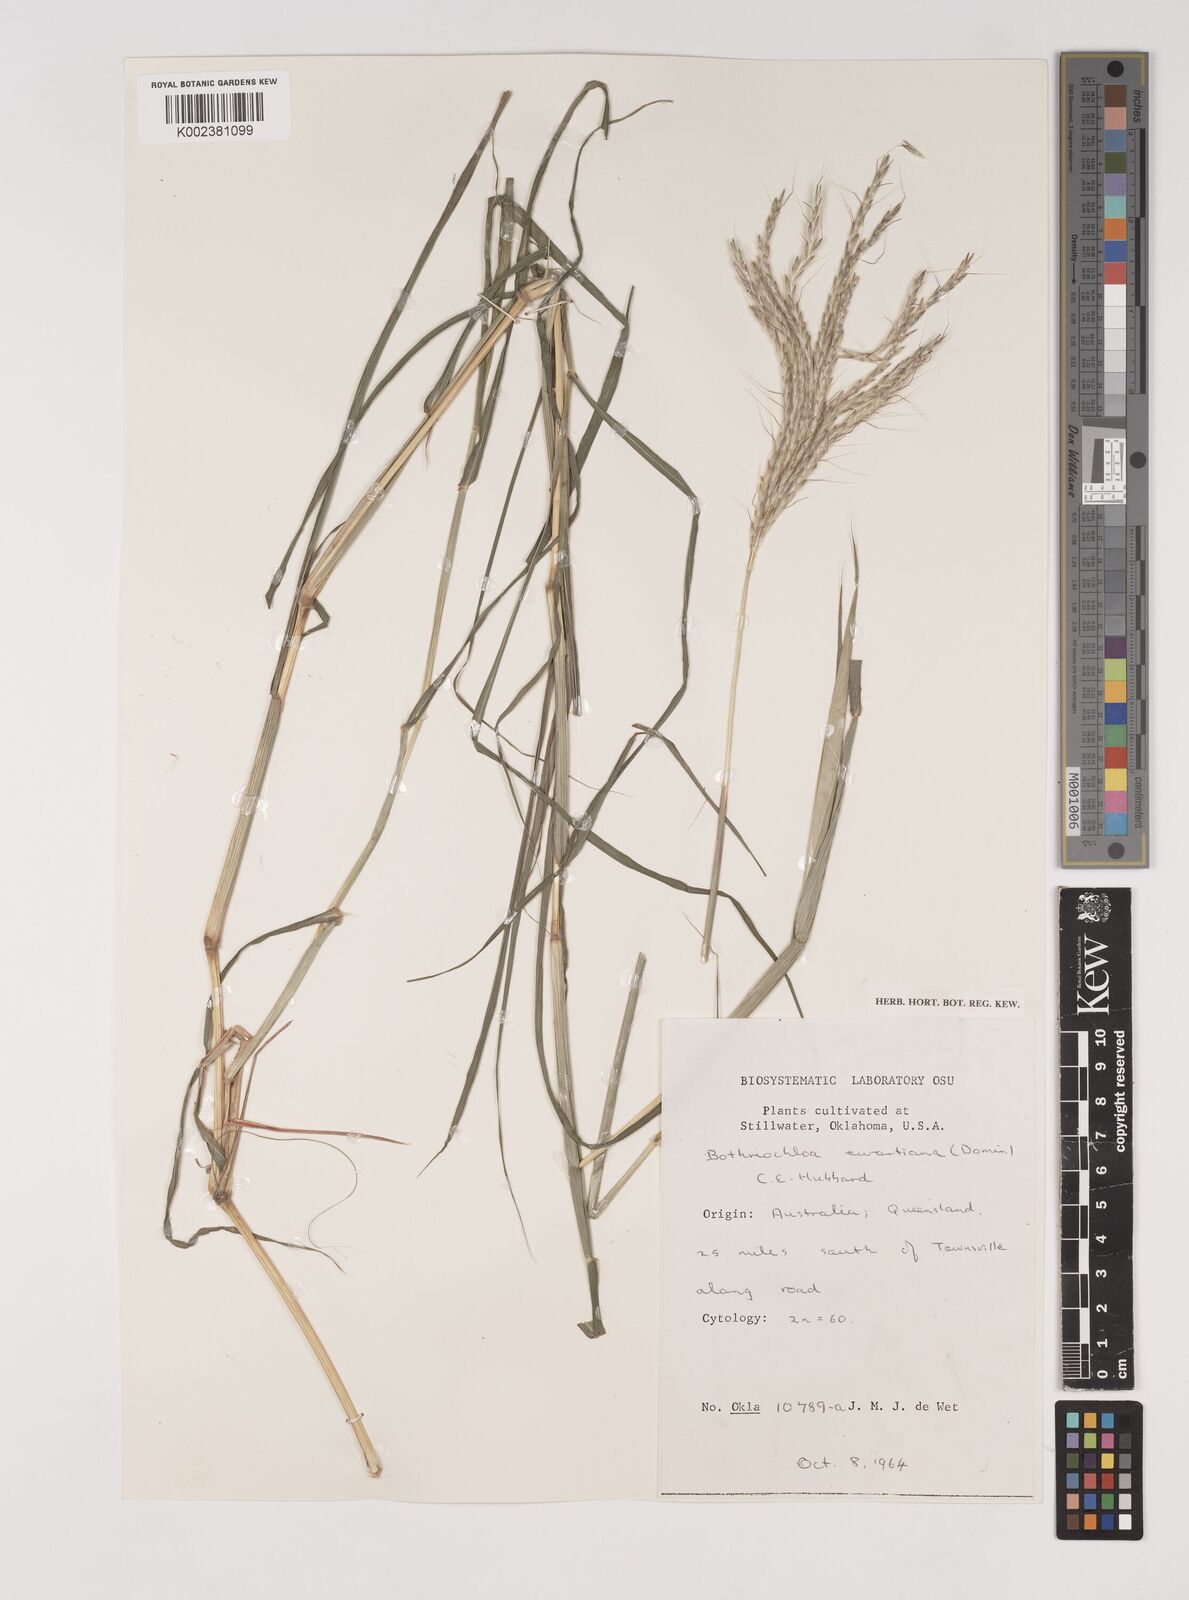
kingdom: Plantae
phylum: Tracheophyta
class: Liliopsida
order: Poales
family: Poaceae
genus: Bothriochloa
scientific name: Bothriochloa ewartiana
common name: Desert-bluegrass
